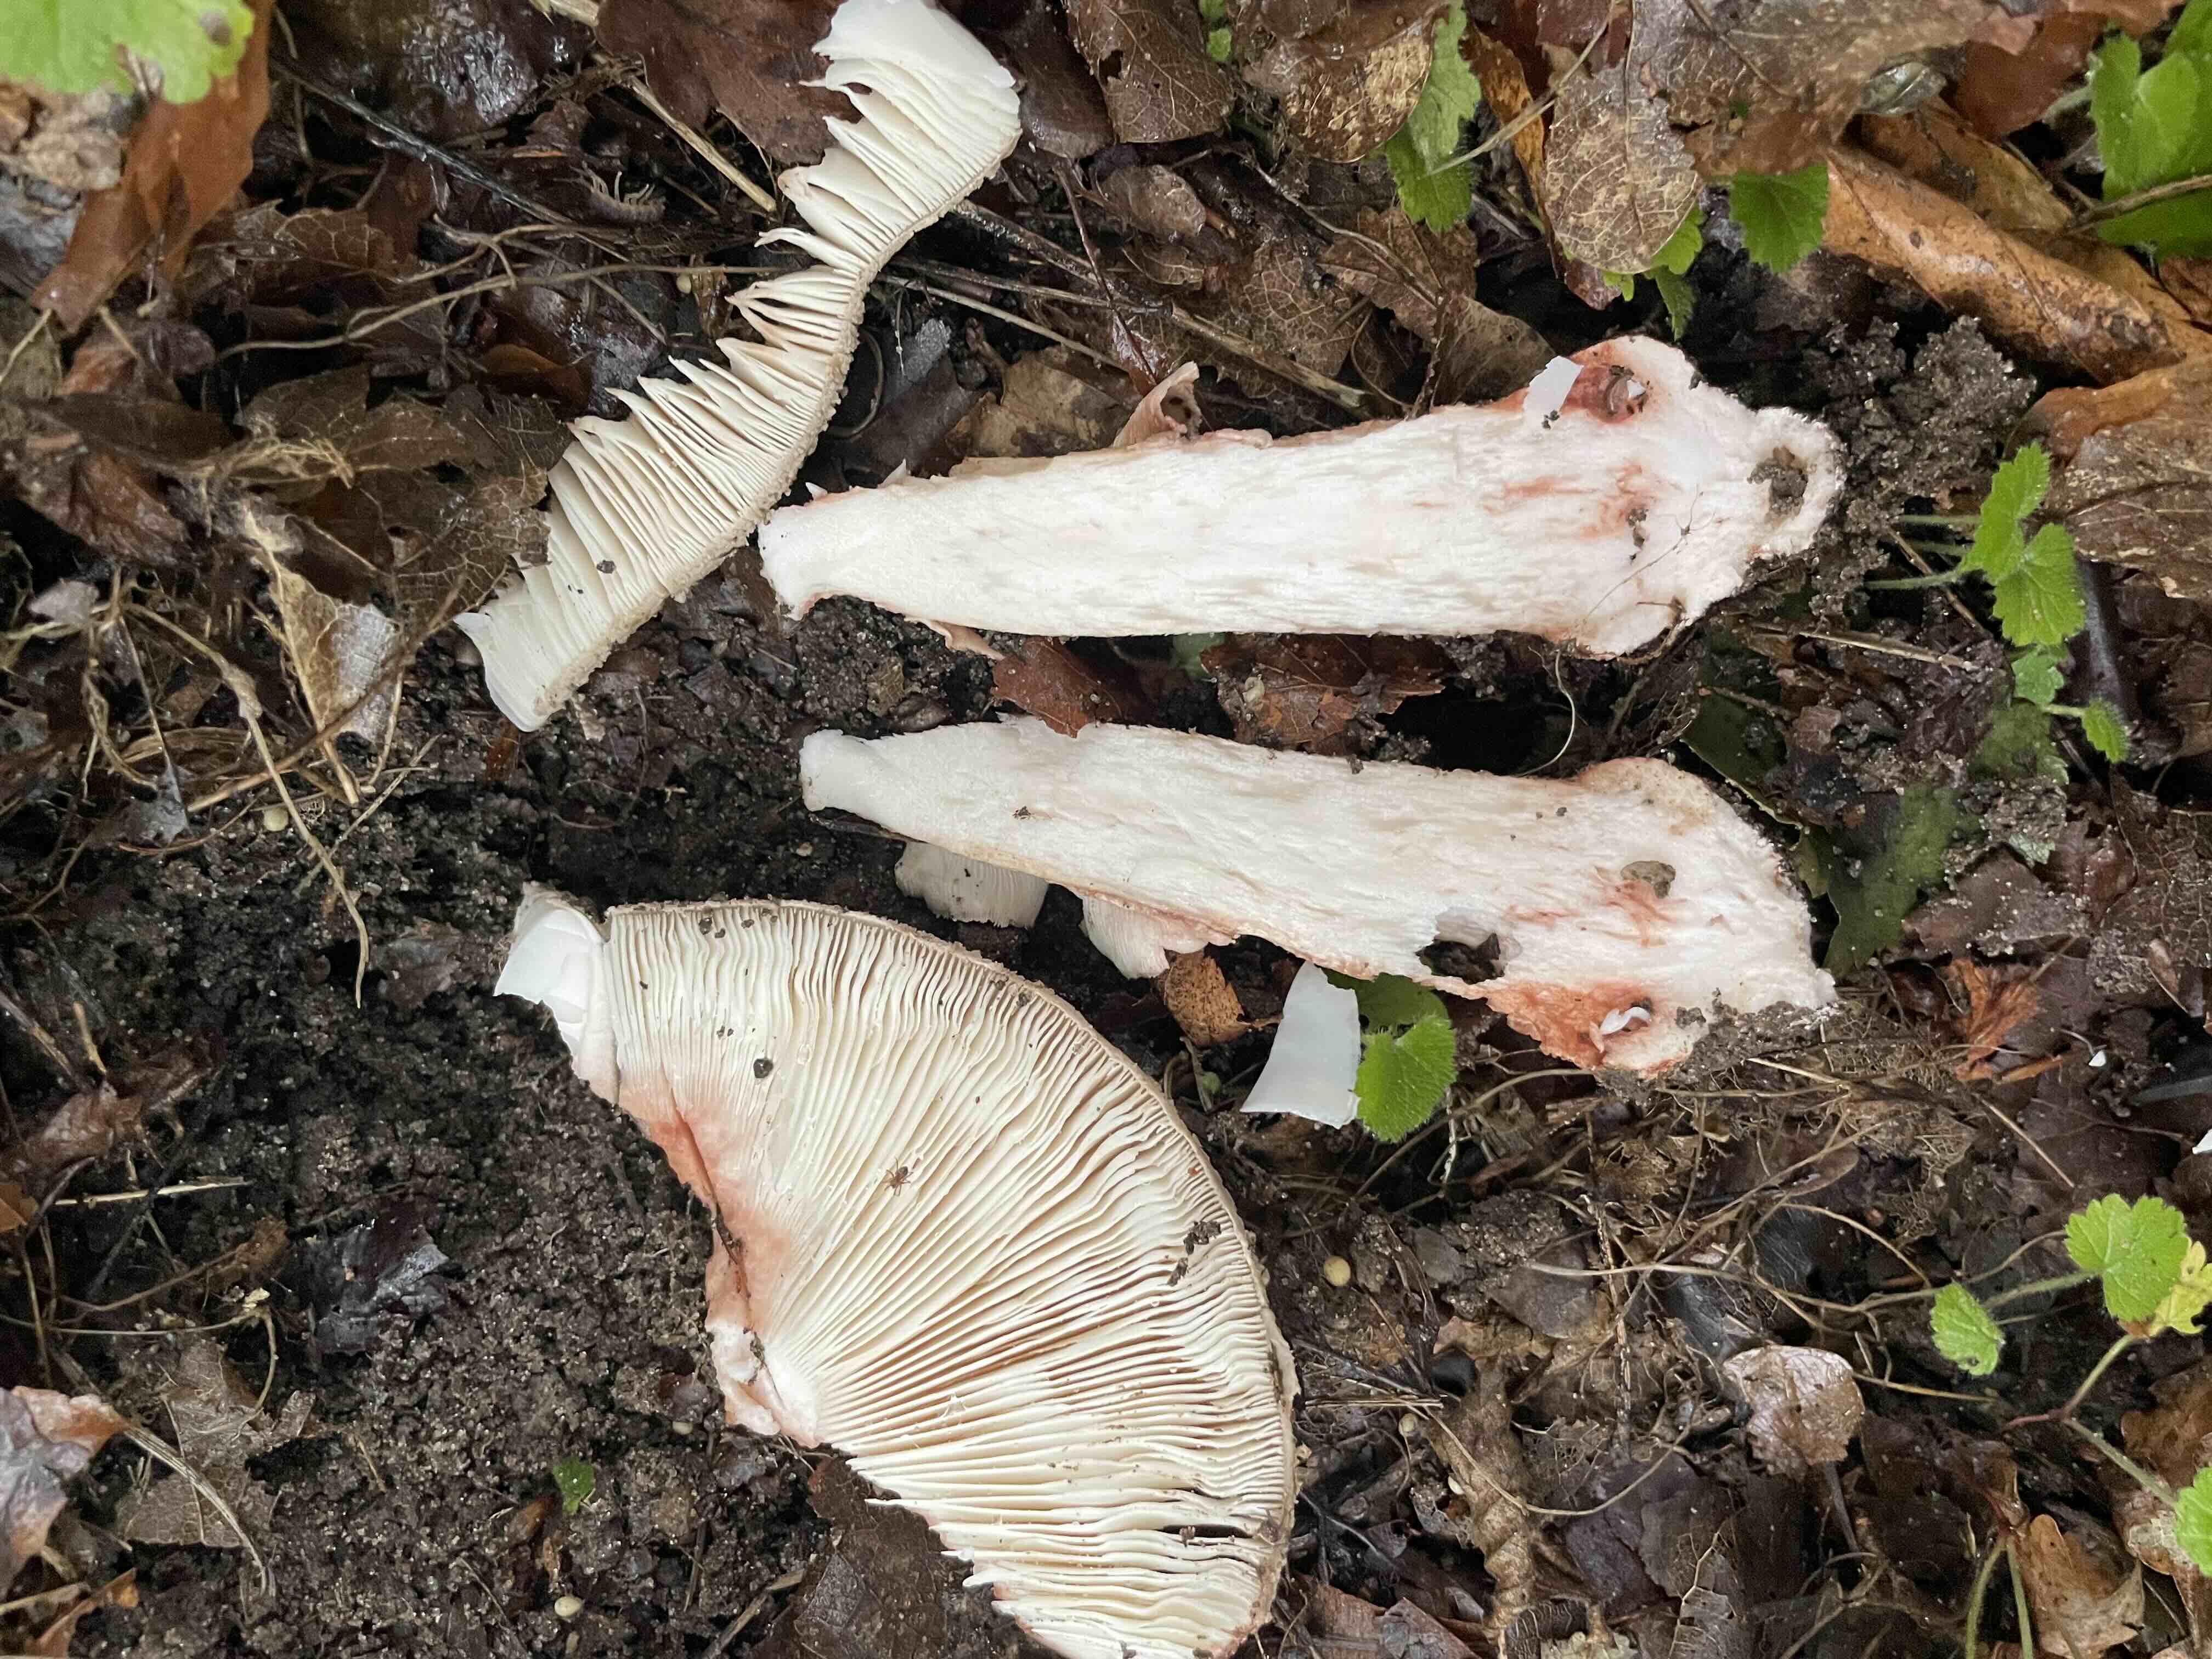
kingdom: Fungi
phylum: Basidiomycota
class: Agaricomycetes
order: Agaricales
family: Amanitaceae
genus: Amanita
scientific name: Amanita rubescens
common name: rødmende fluesvamp
